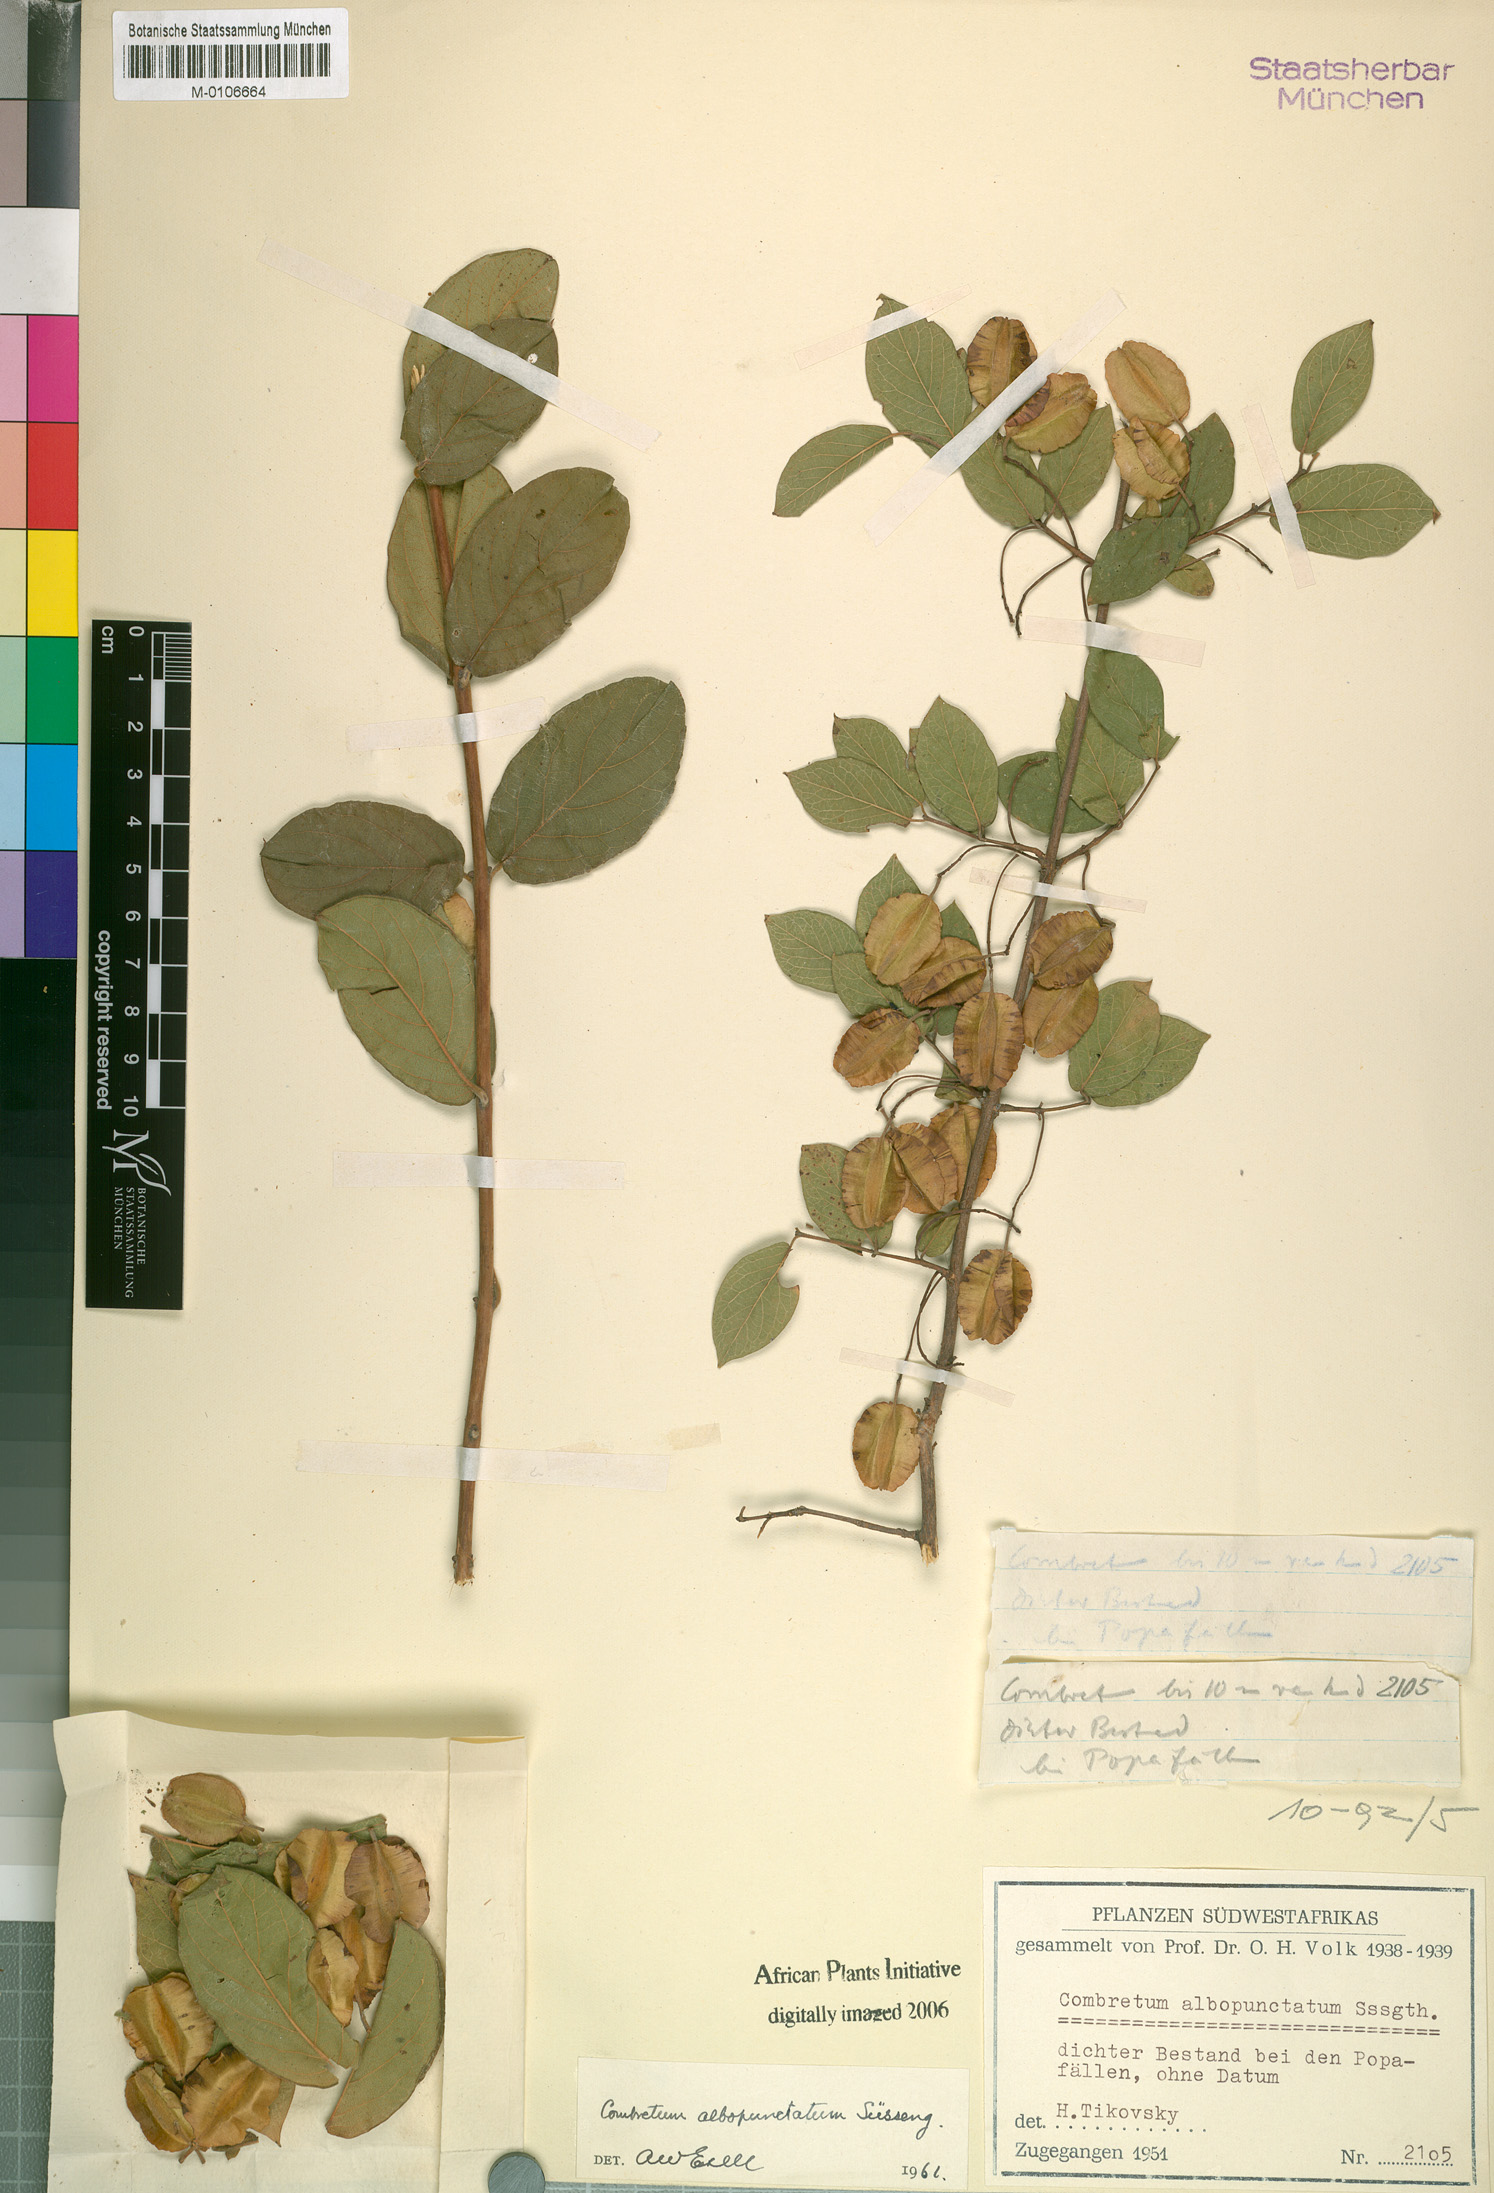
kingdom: Plantae
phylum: Tracheophyta
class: Magnoliopsida
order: Myrtales
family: Combretaceae
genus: Combretum
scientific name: Combretum albopunctatum
